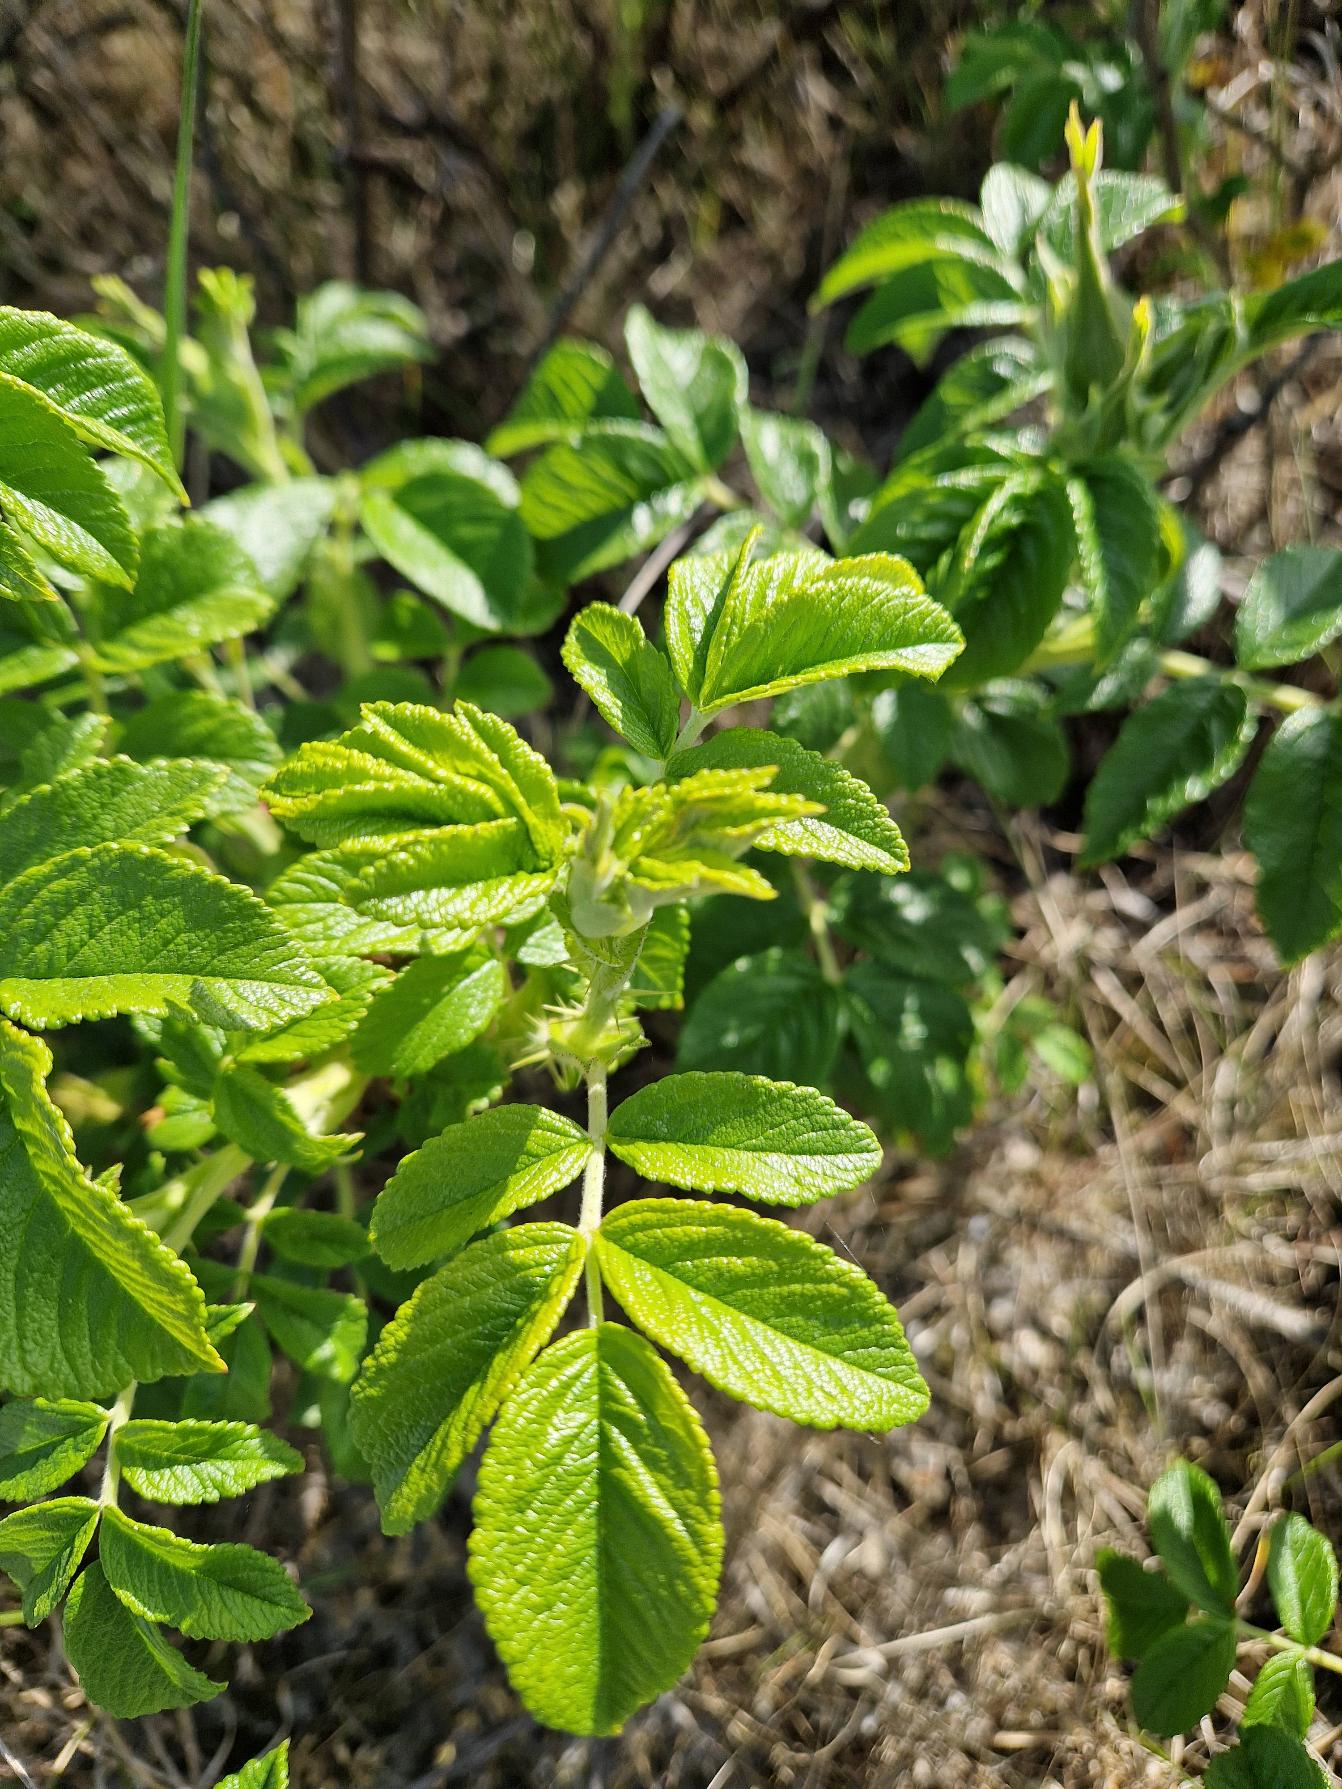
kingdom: Plantae
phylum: Tracheophyta
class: Magnoliopsida
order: Rosales
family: Rosaceae
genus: Rosa
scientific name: Rosa rugosa
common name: Rynket rose
